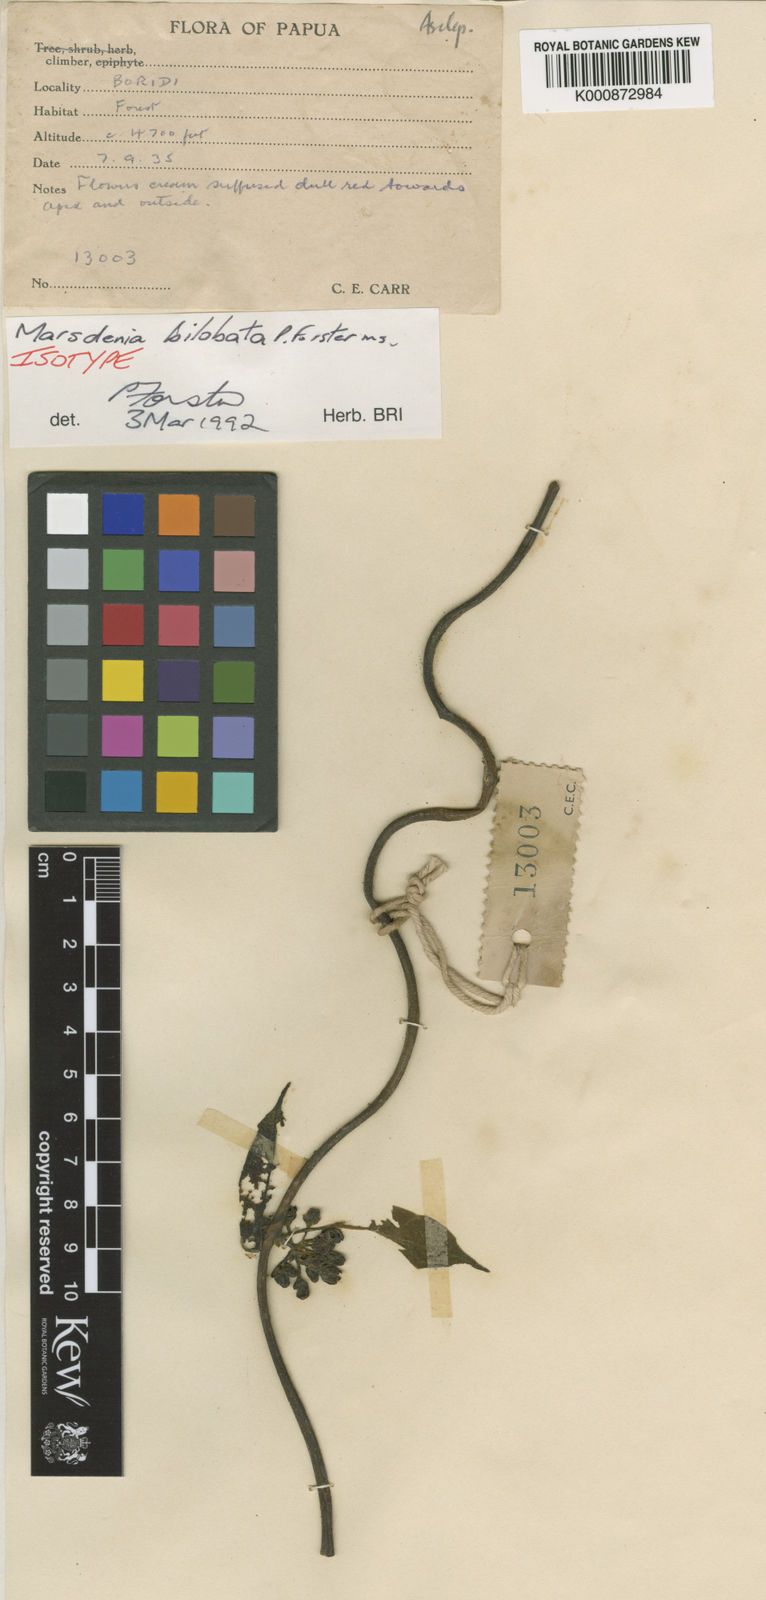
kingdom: Plantae
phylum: Tracheophyta
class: Magnoliopsida
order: Gentianales
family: Apocynaceae
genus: Leichhardtia
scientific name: Leichhardtia bilobata
